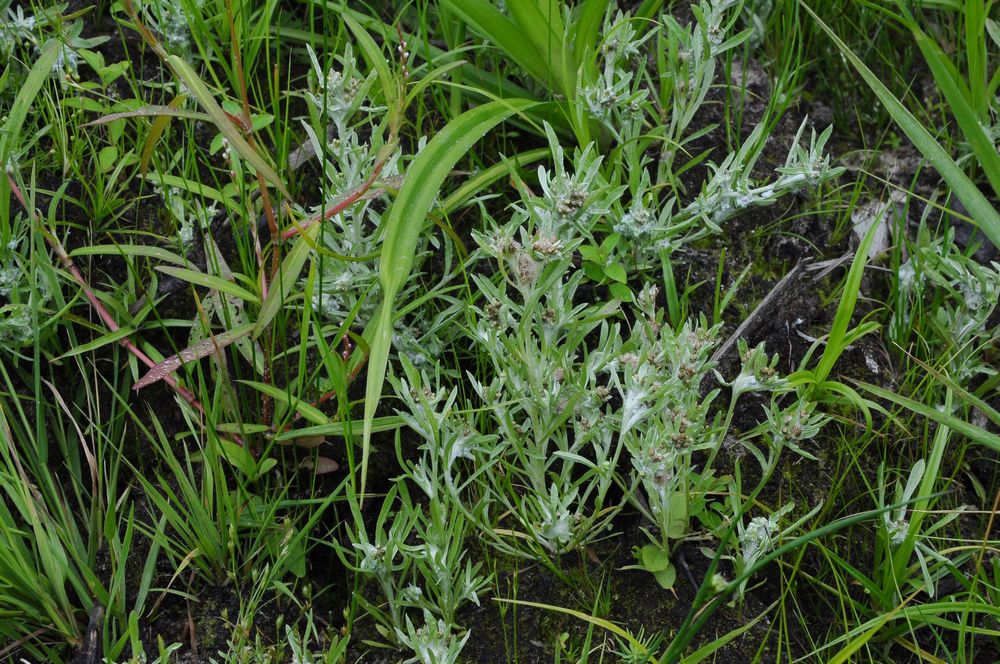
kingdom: Plantae
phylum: Tracheophyta
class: Magnoliopsida
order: Asterales
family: Asteraceae
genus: Gnaphalium
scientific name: Gnaphalium uliginosum
